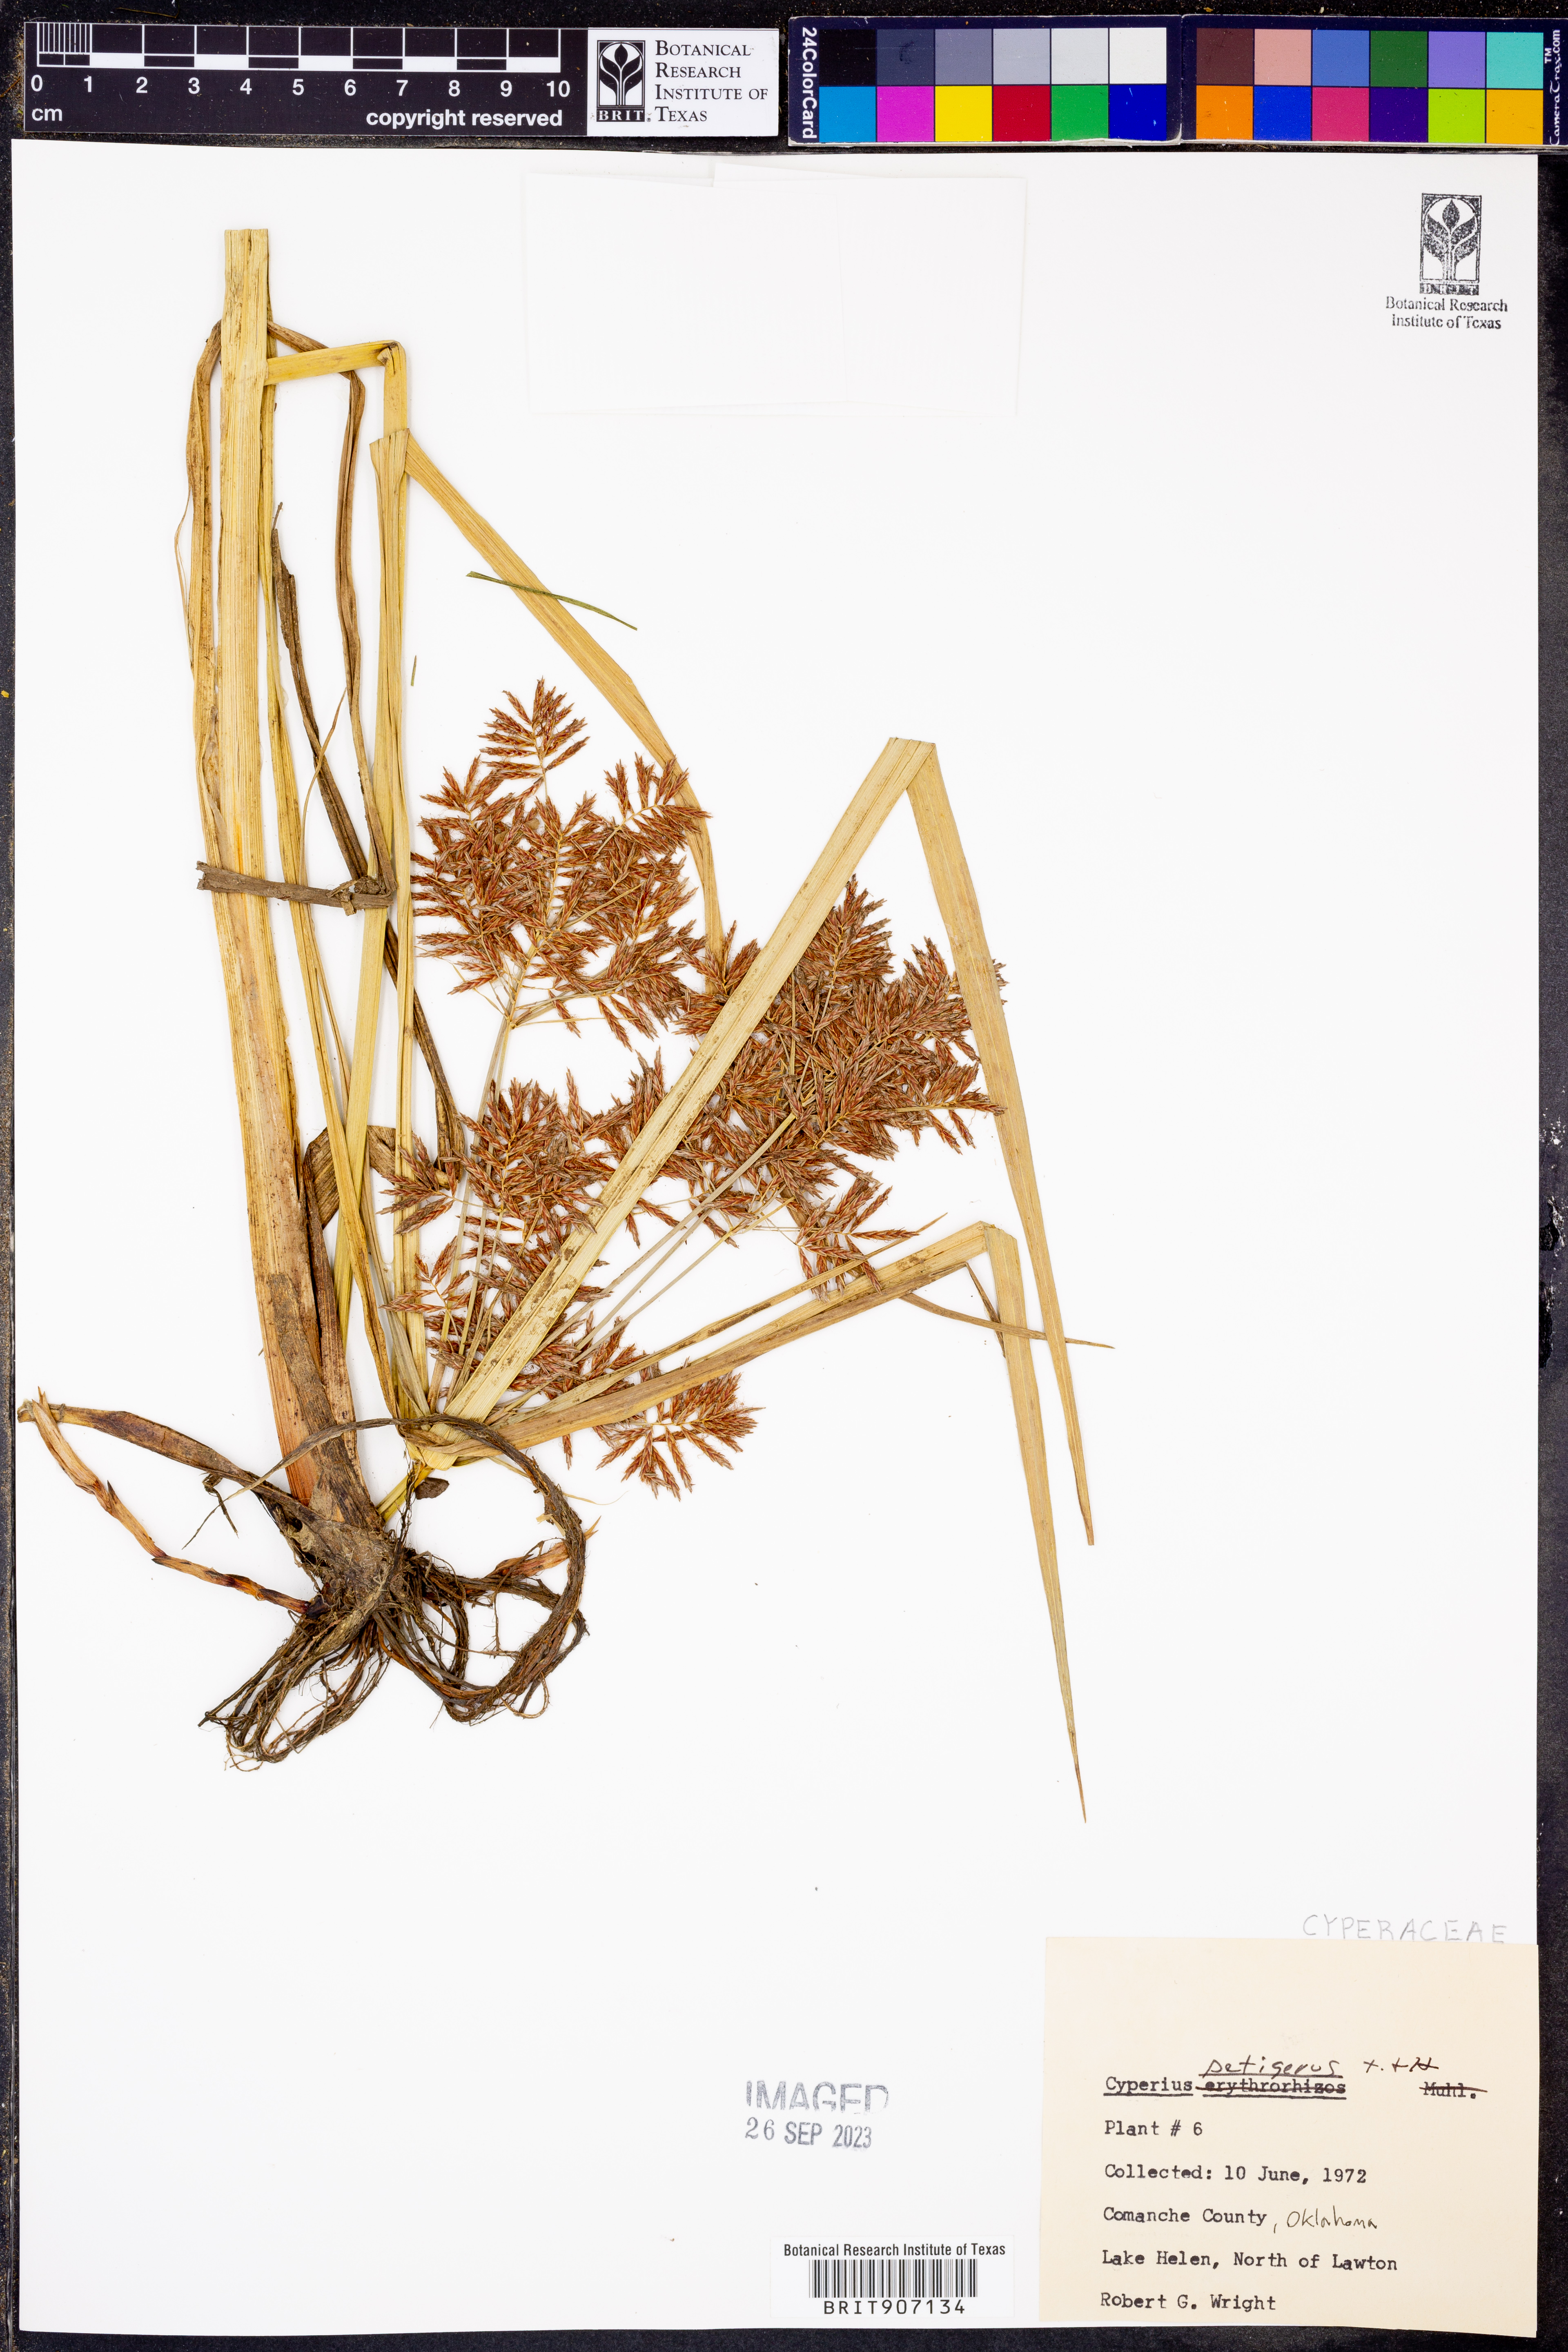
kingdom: Plantae
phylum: Tracheophyta
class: Liliopsida
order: Poales
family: Cyperaceae
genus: Cyperus
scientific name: Cyperus setigerus
